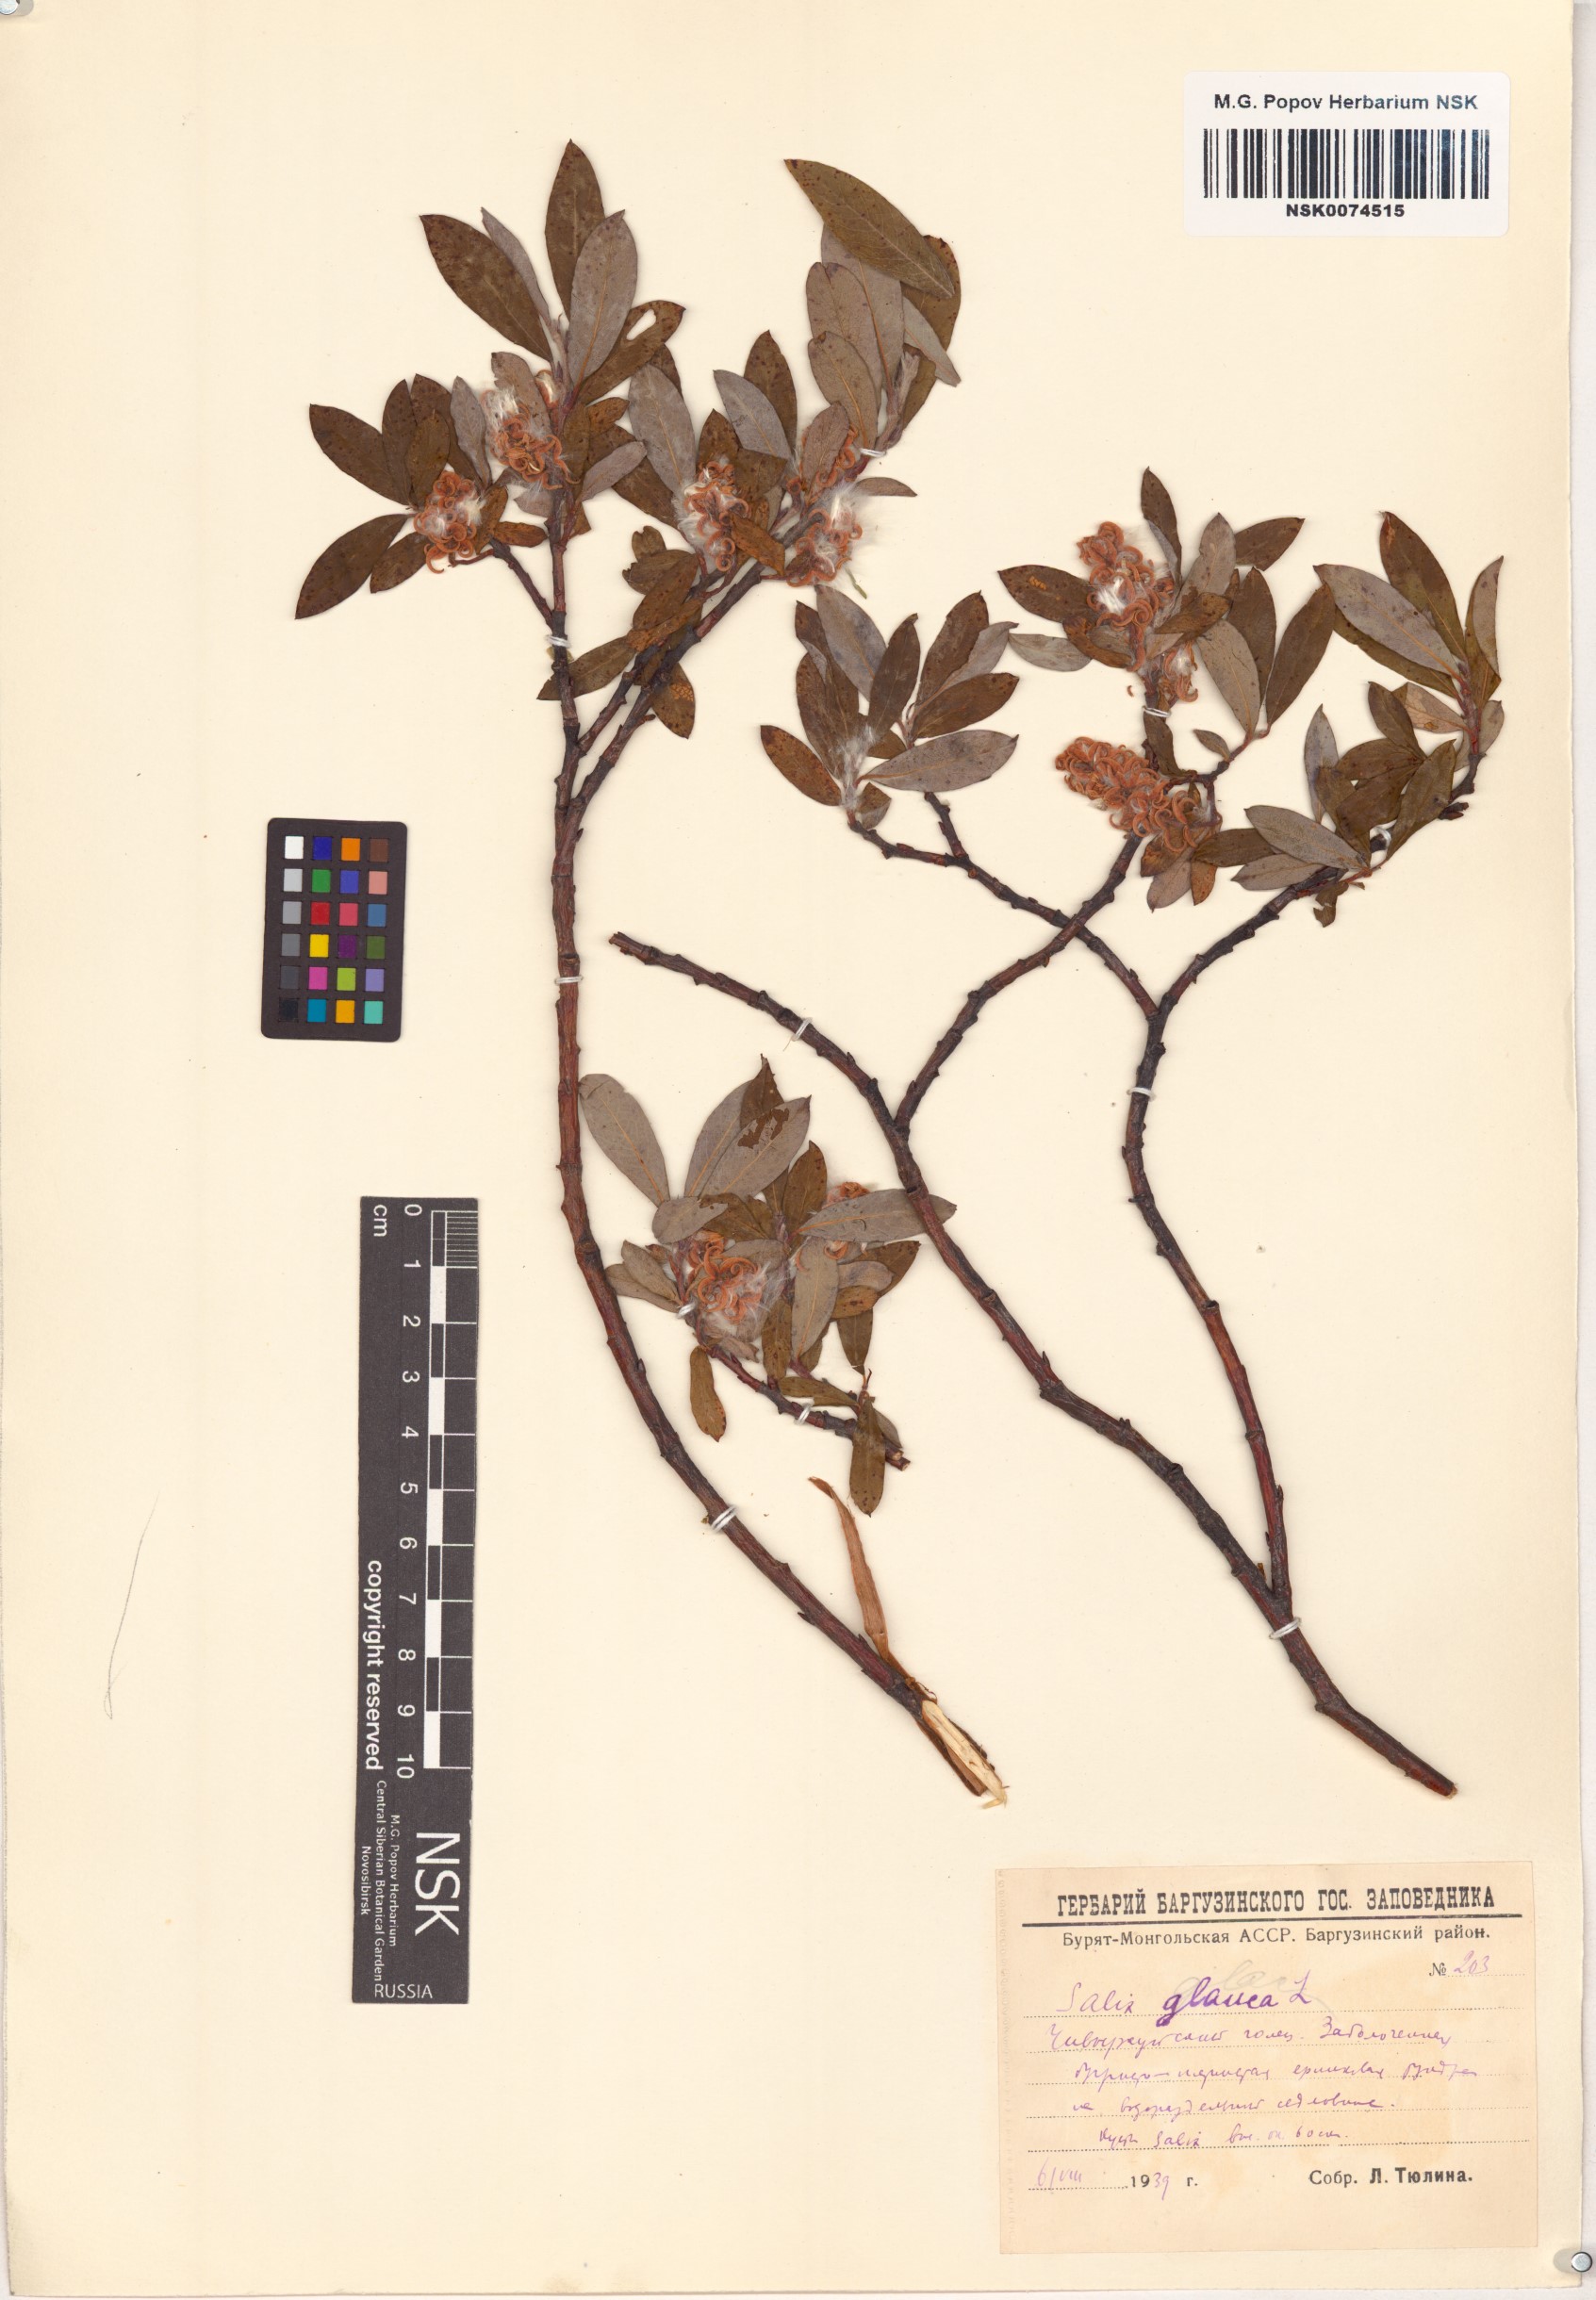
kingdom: Plantae
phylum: Tracheophyta
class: Magnoliopsida
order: Malpighiales
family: Salicaceae
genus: Salix
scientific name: Salix glauca
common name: Glaucous willow
